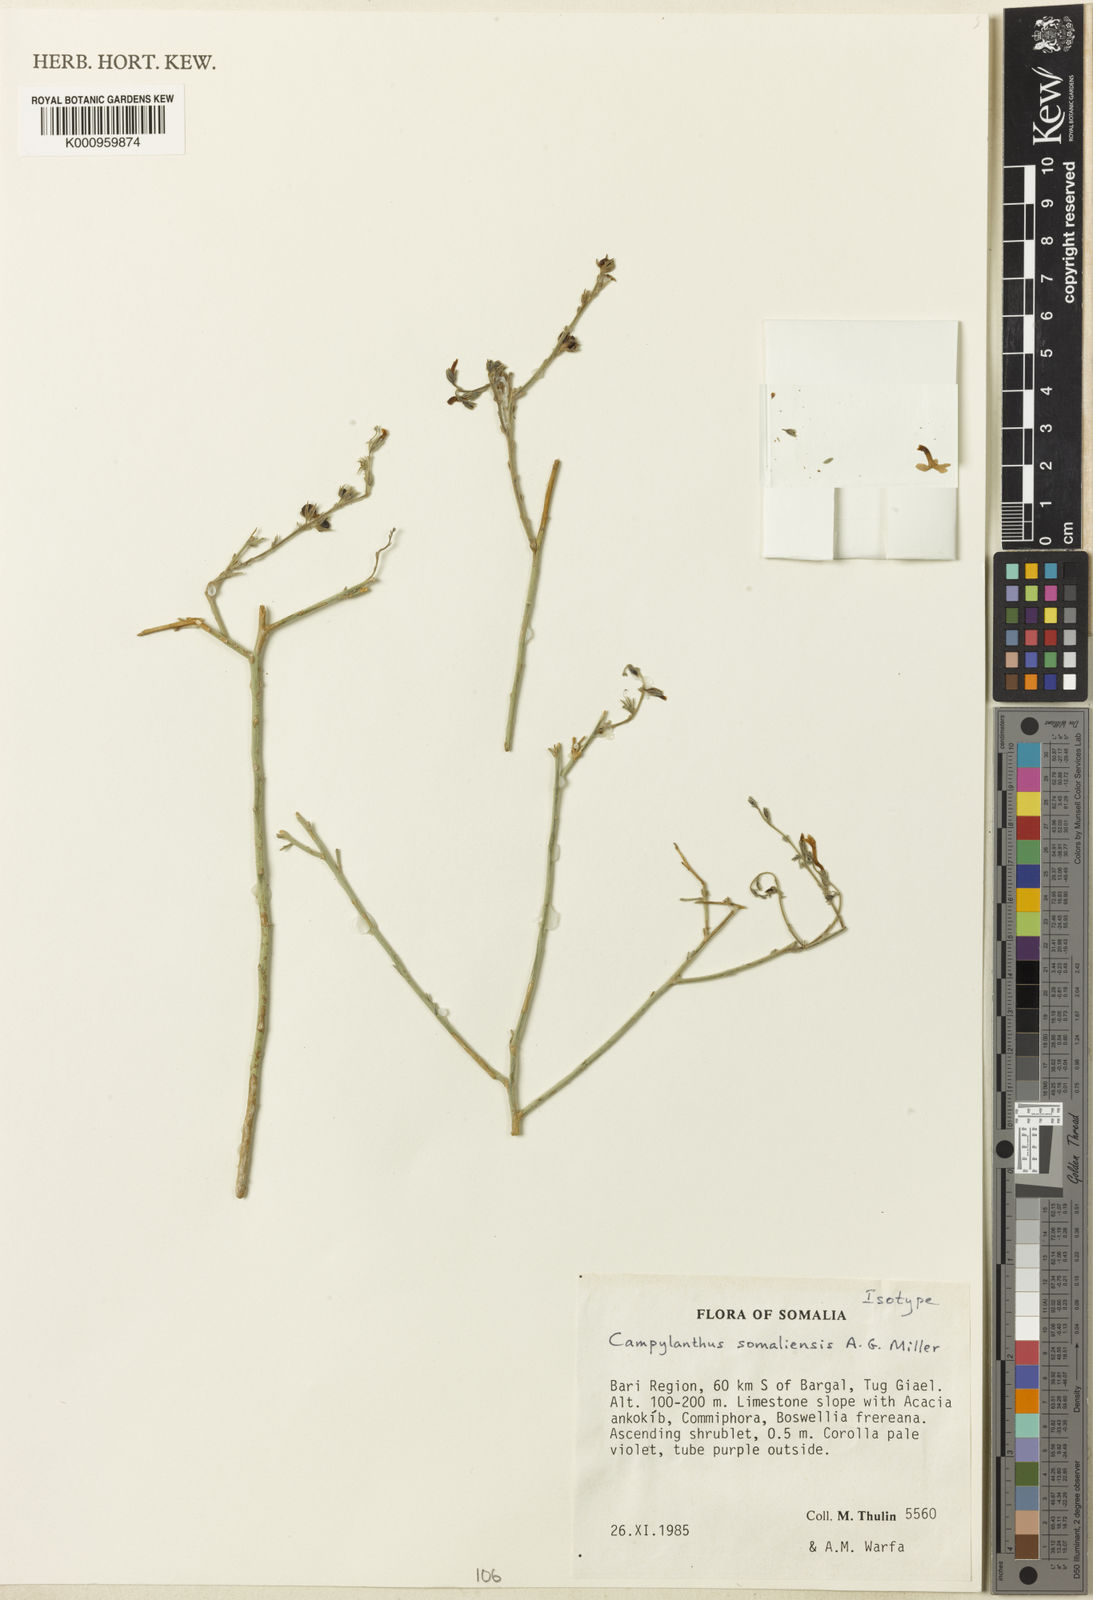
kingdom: Plantae
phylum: Tracheophyta
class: Magnoliopsida
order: Lamiales
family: Plantaginaceae
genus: Campylanthus
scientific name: Campylanthus
